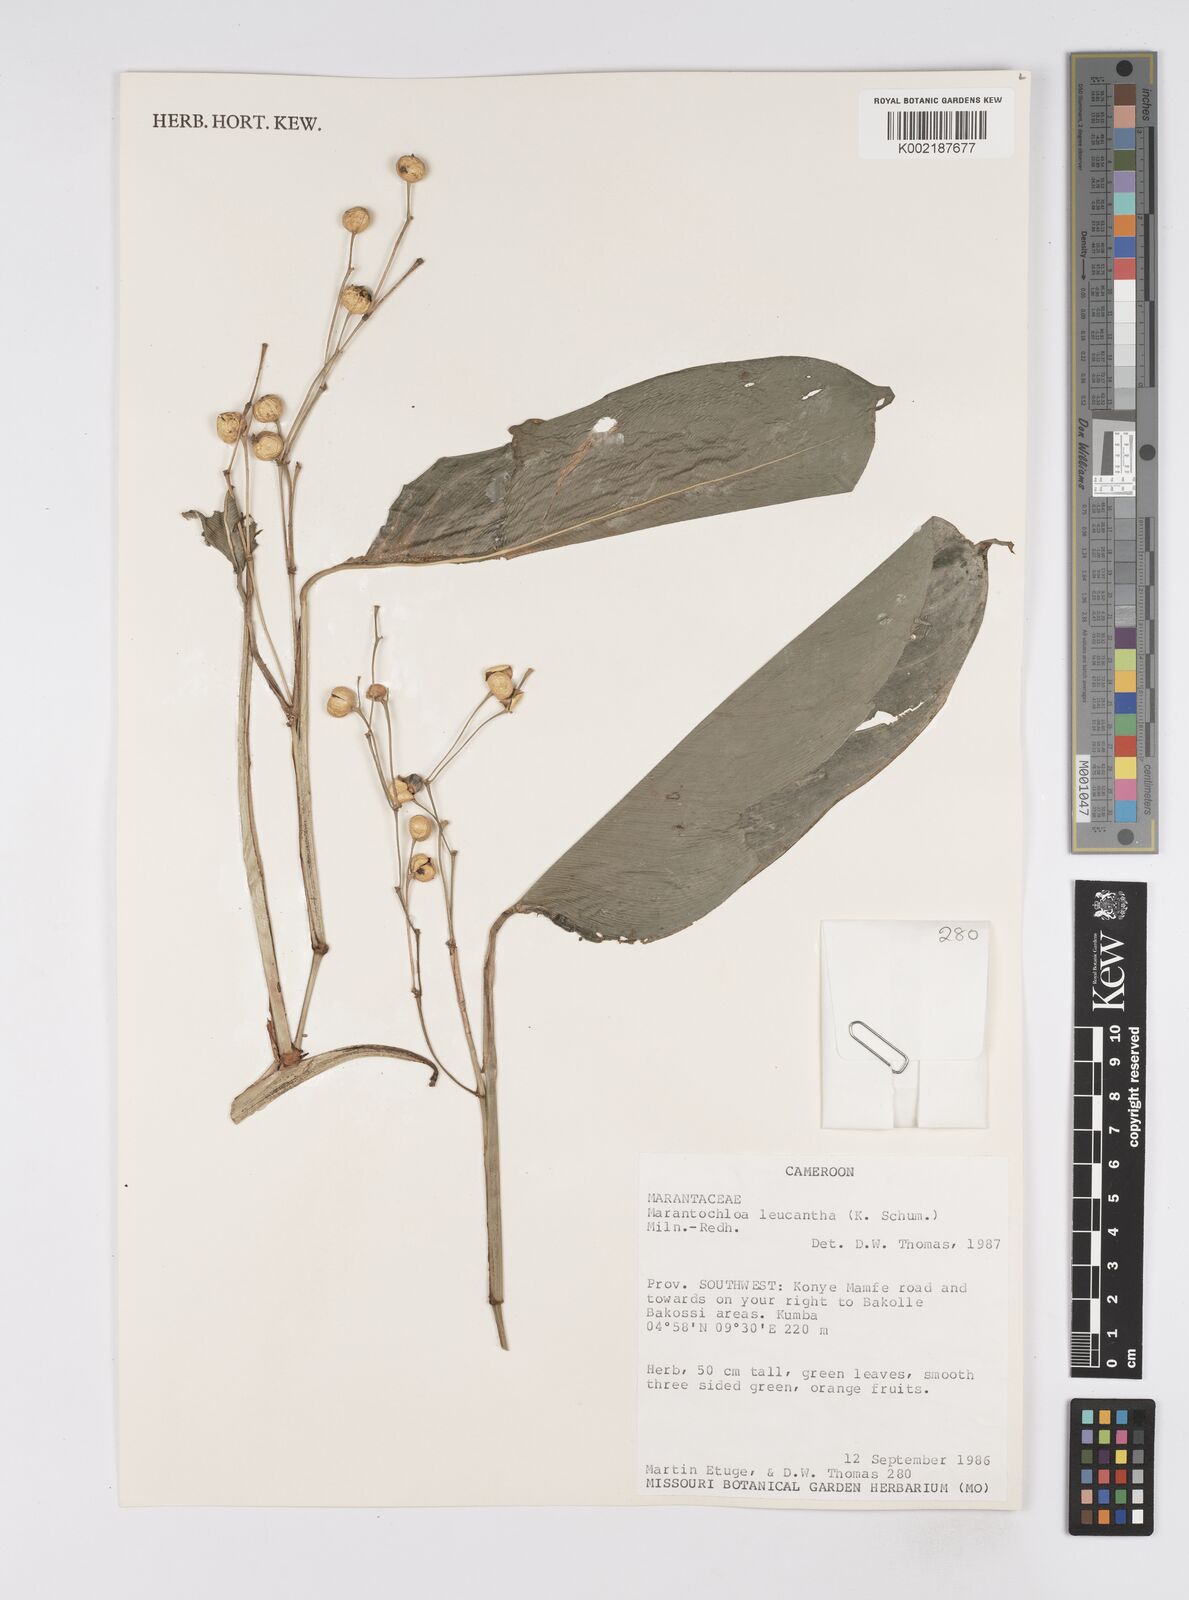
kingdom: Plantae
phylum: Tracheophyta
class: Liliopsida
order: Zingiberales
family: Marantaceae
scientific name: Marantaceae
